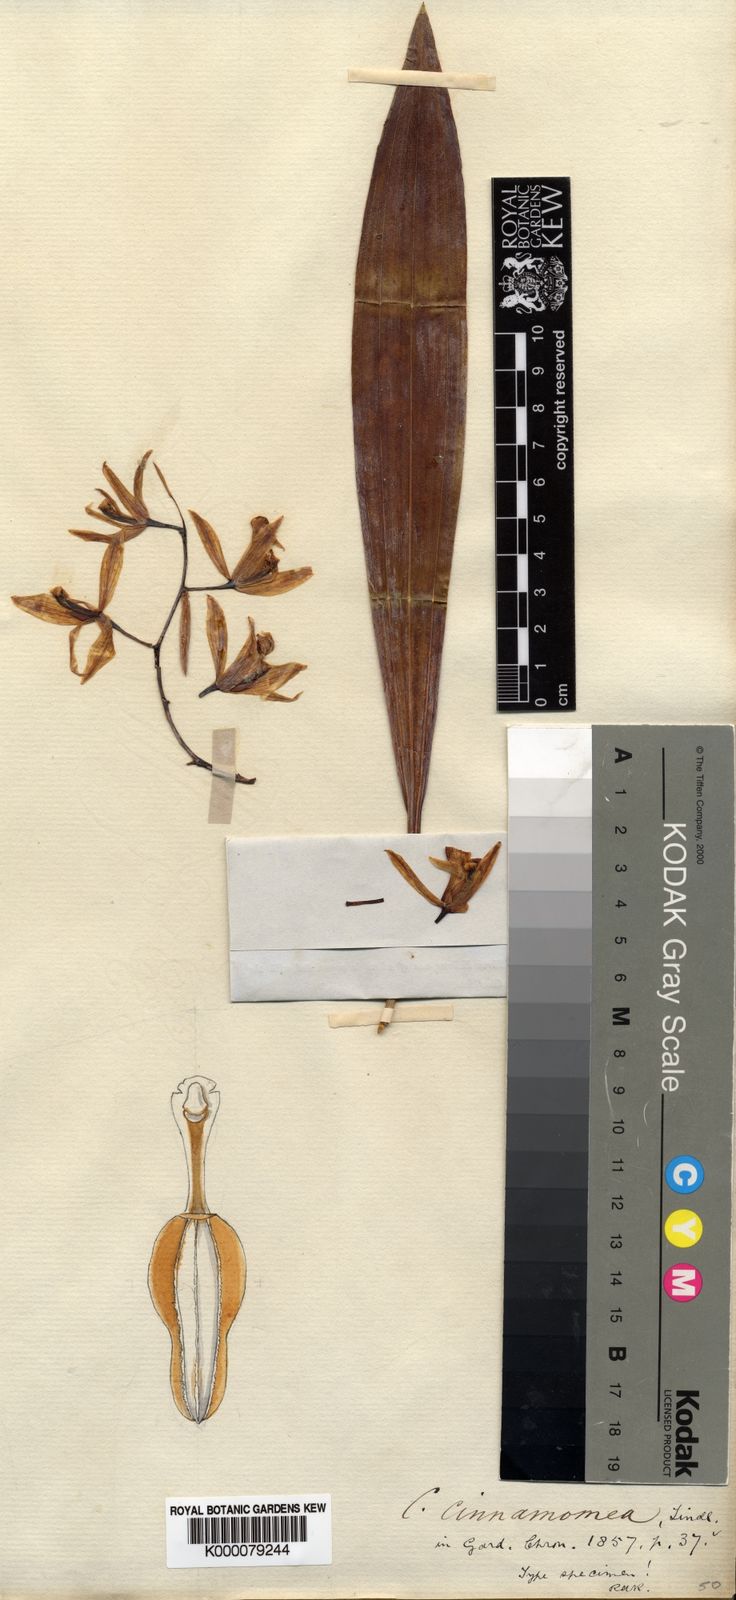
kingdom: Plantae
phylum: Tracheophyta
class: Liliopsida
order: Asparagales
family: Orchidaceae
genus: Coelogyne
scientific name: Coelogyne trinervis
